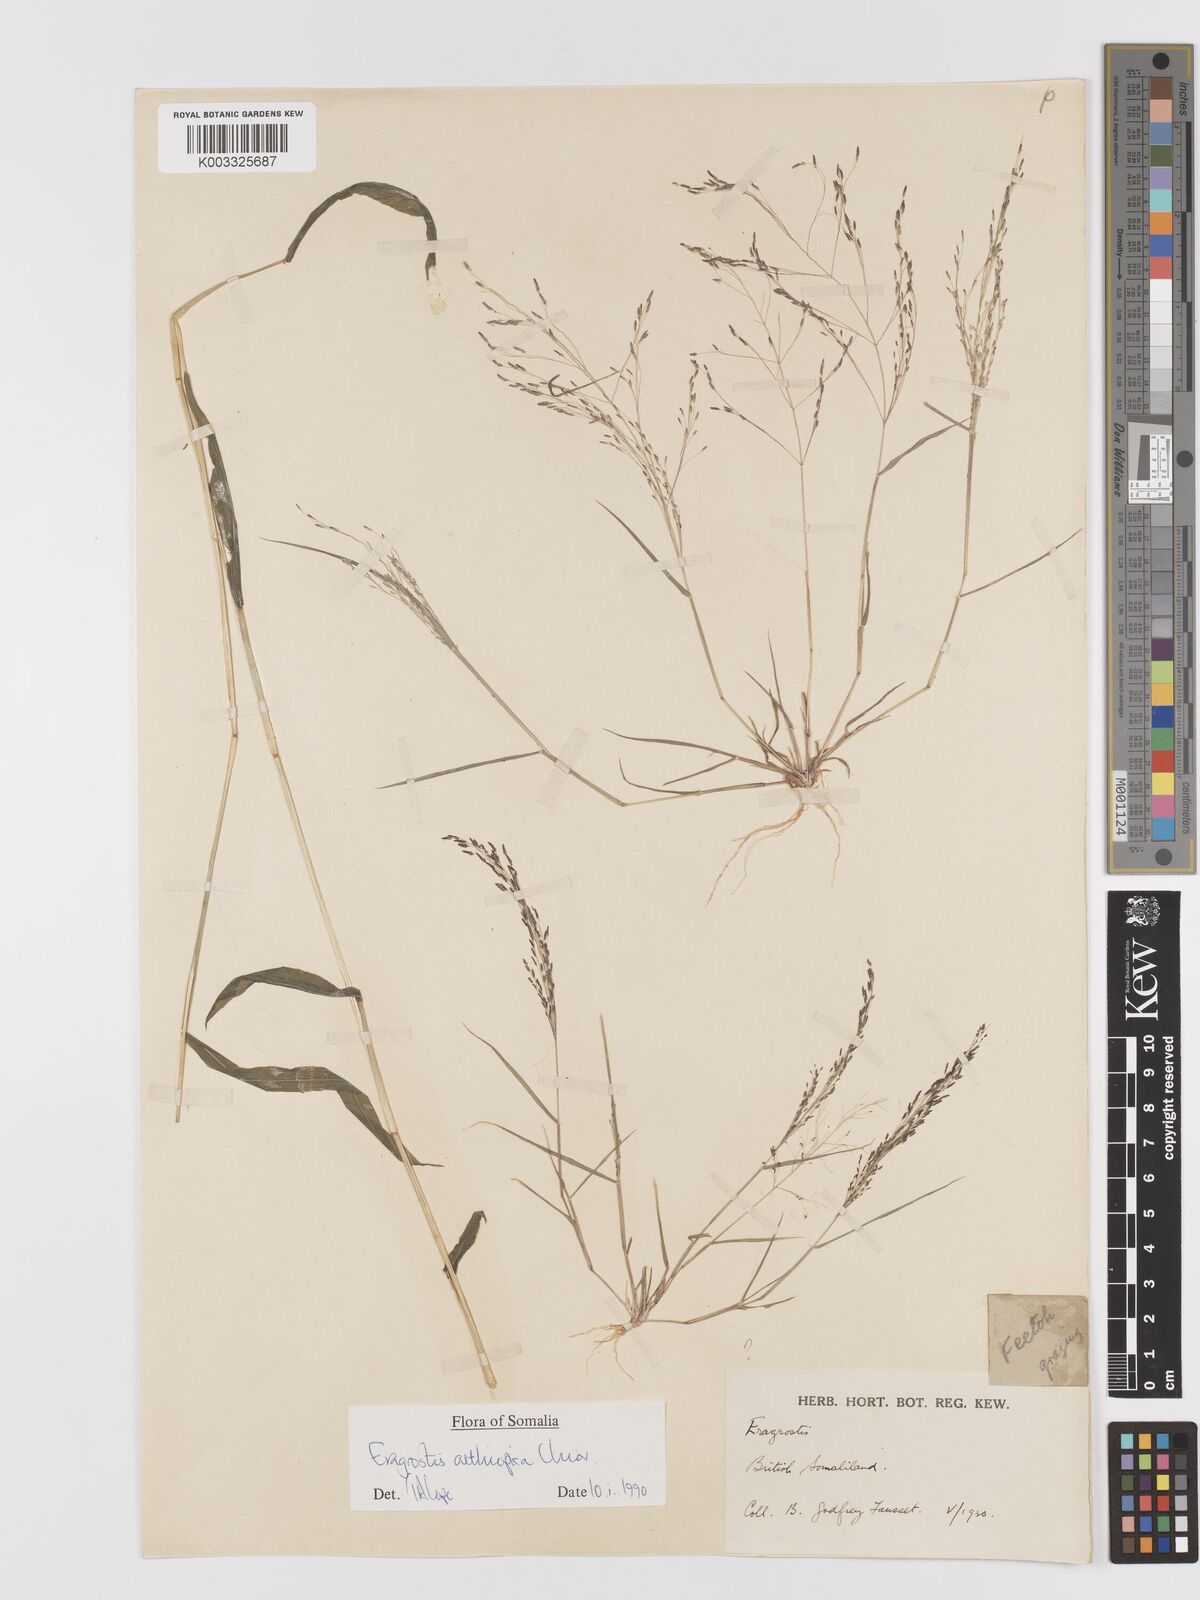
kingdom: Plantae
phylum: Tracheophyta
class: Liliopsida
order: Poales
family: Poaceae
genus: Eragrostis
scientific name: Eragrostis aethiopica
